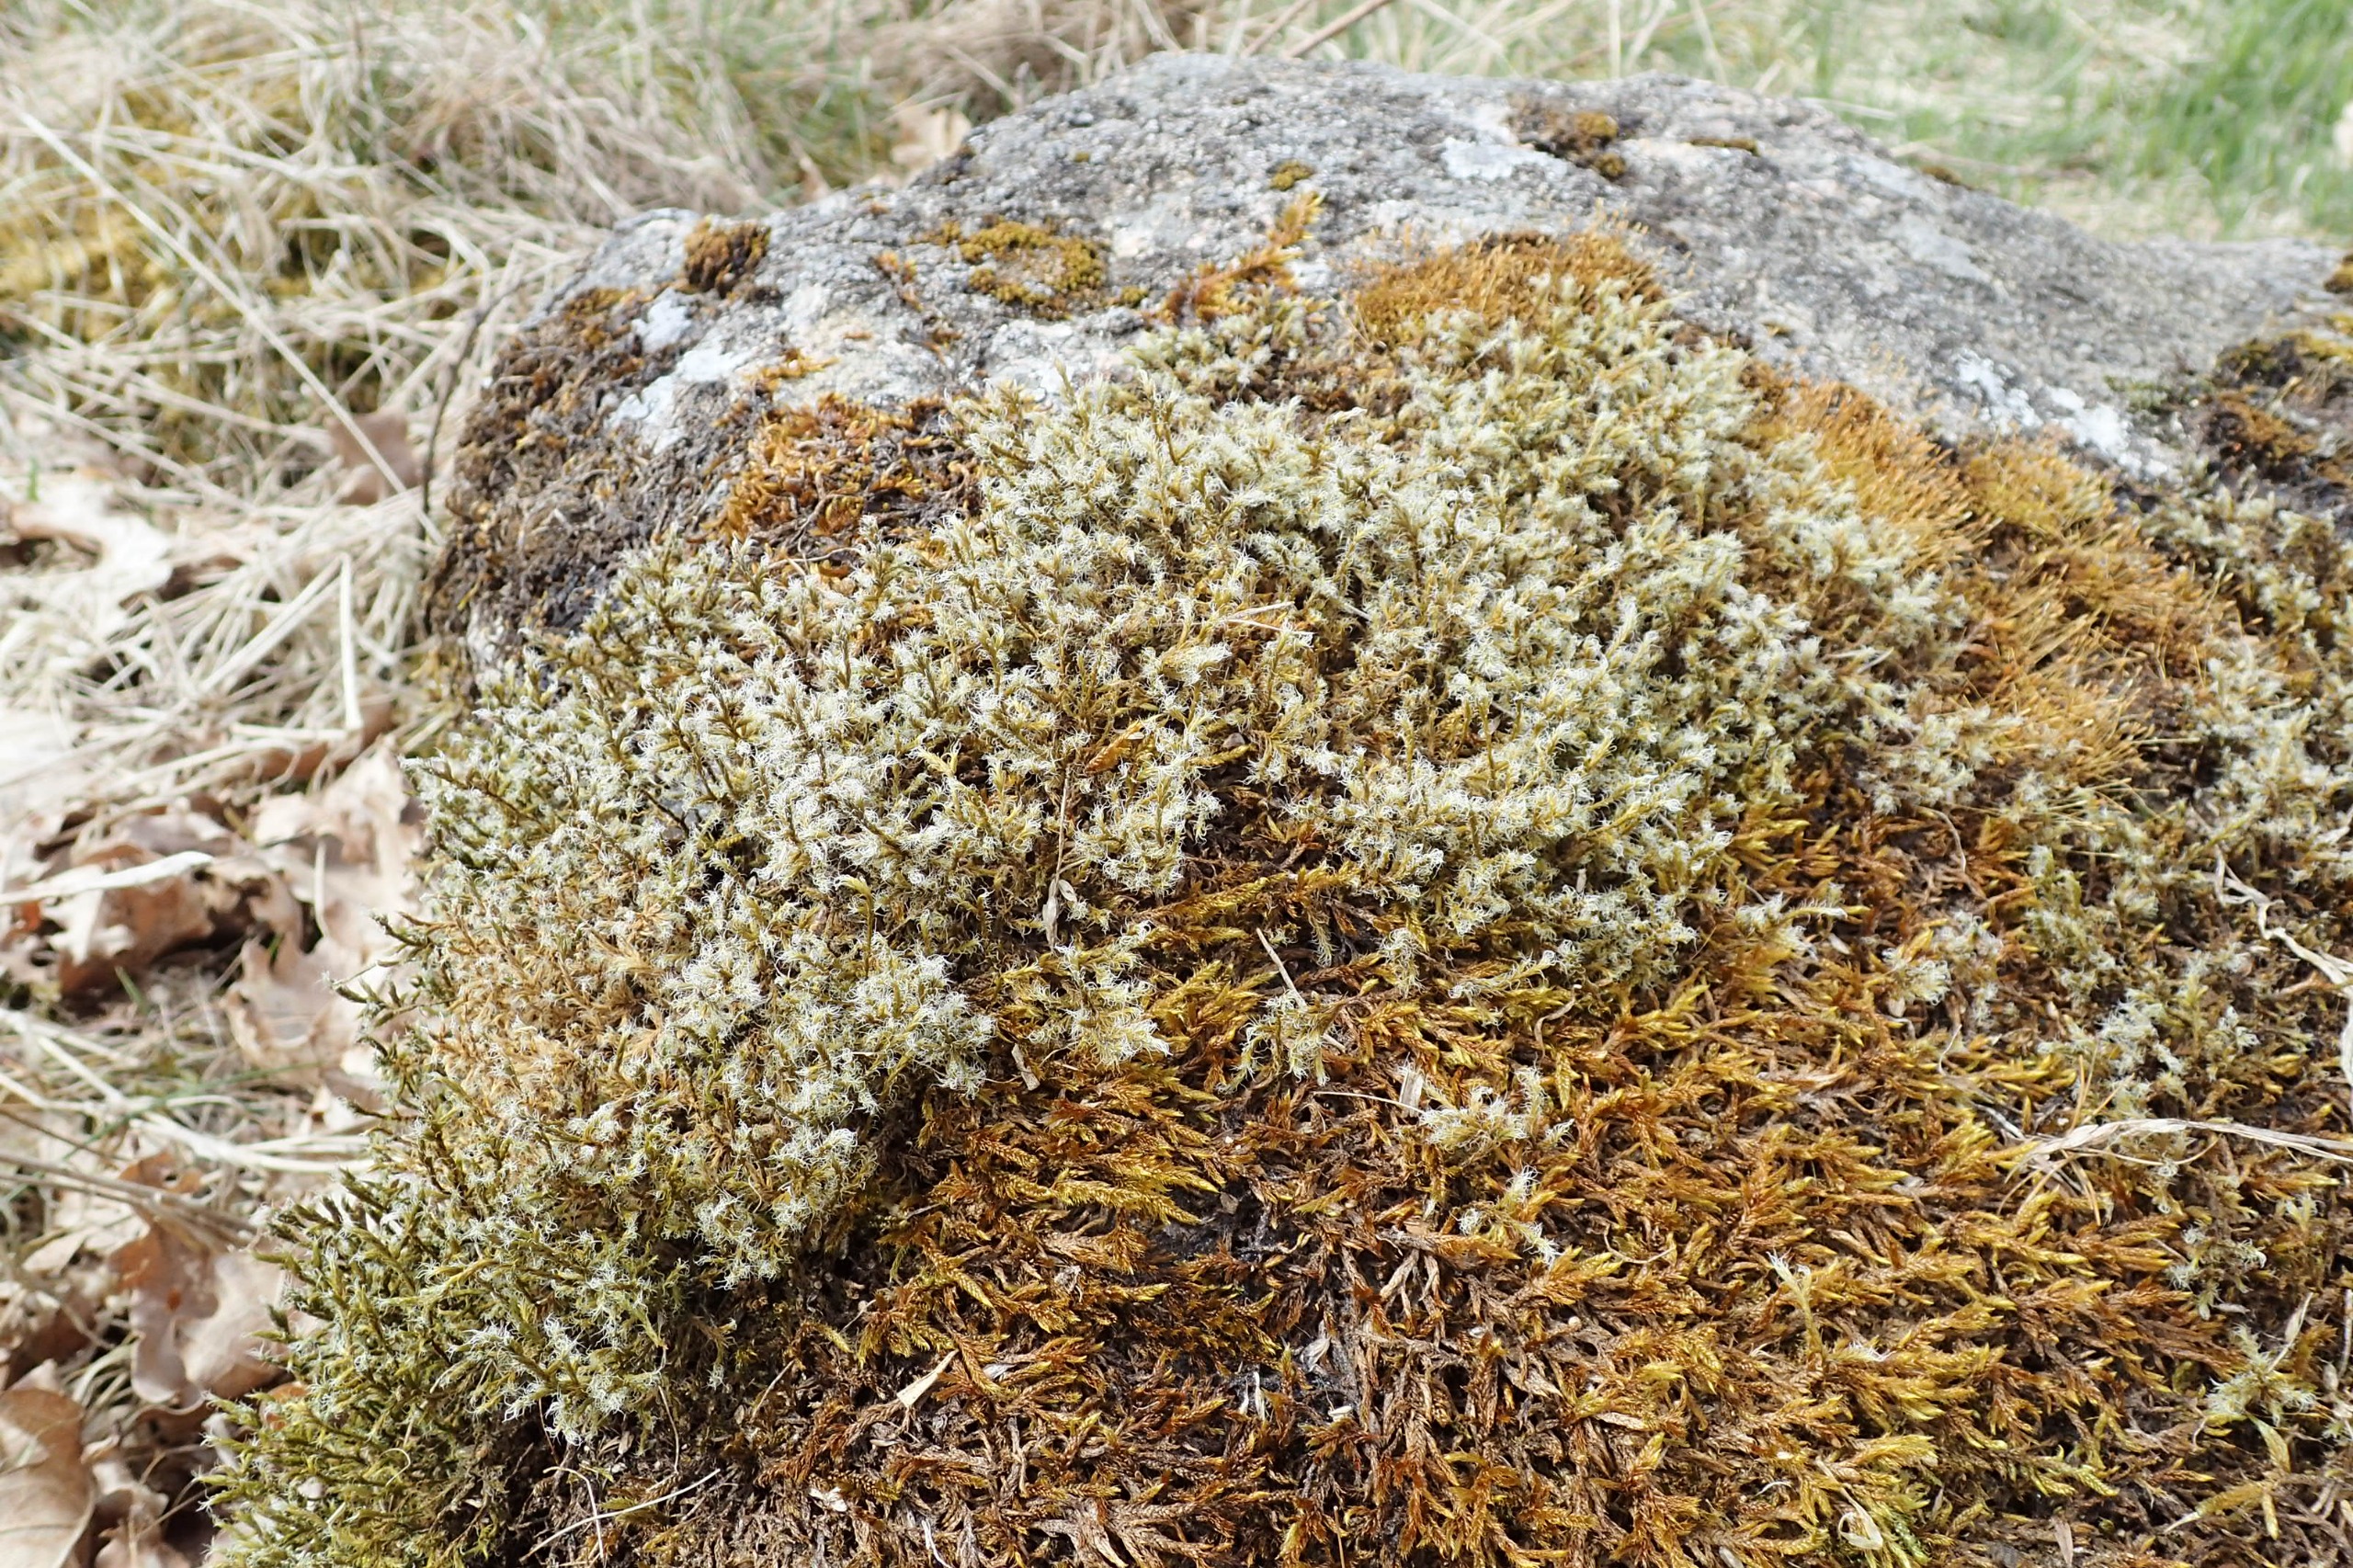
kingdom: Plantae
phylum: Bryophyta
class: Bryopsida
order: Grimmiales
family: Grimmiaceae
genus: Racomitrium
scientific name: Racomitrium lanuginosum
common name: Stor børstemos
